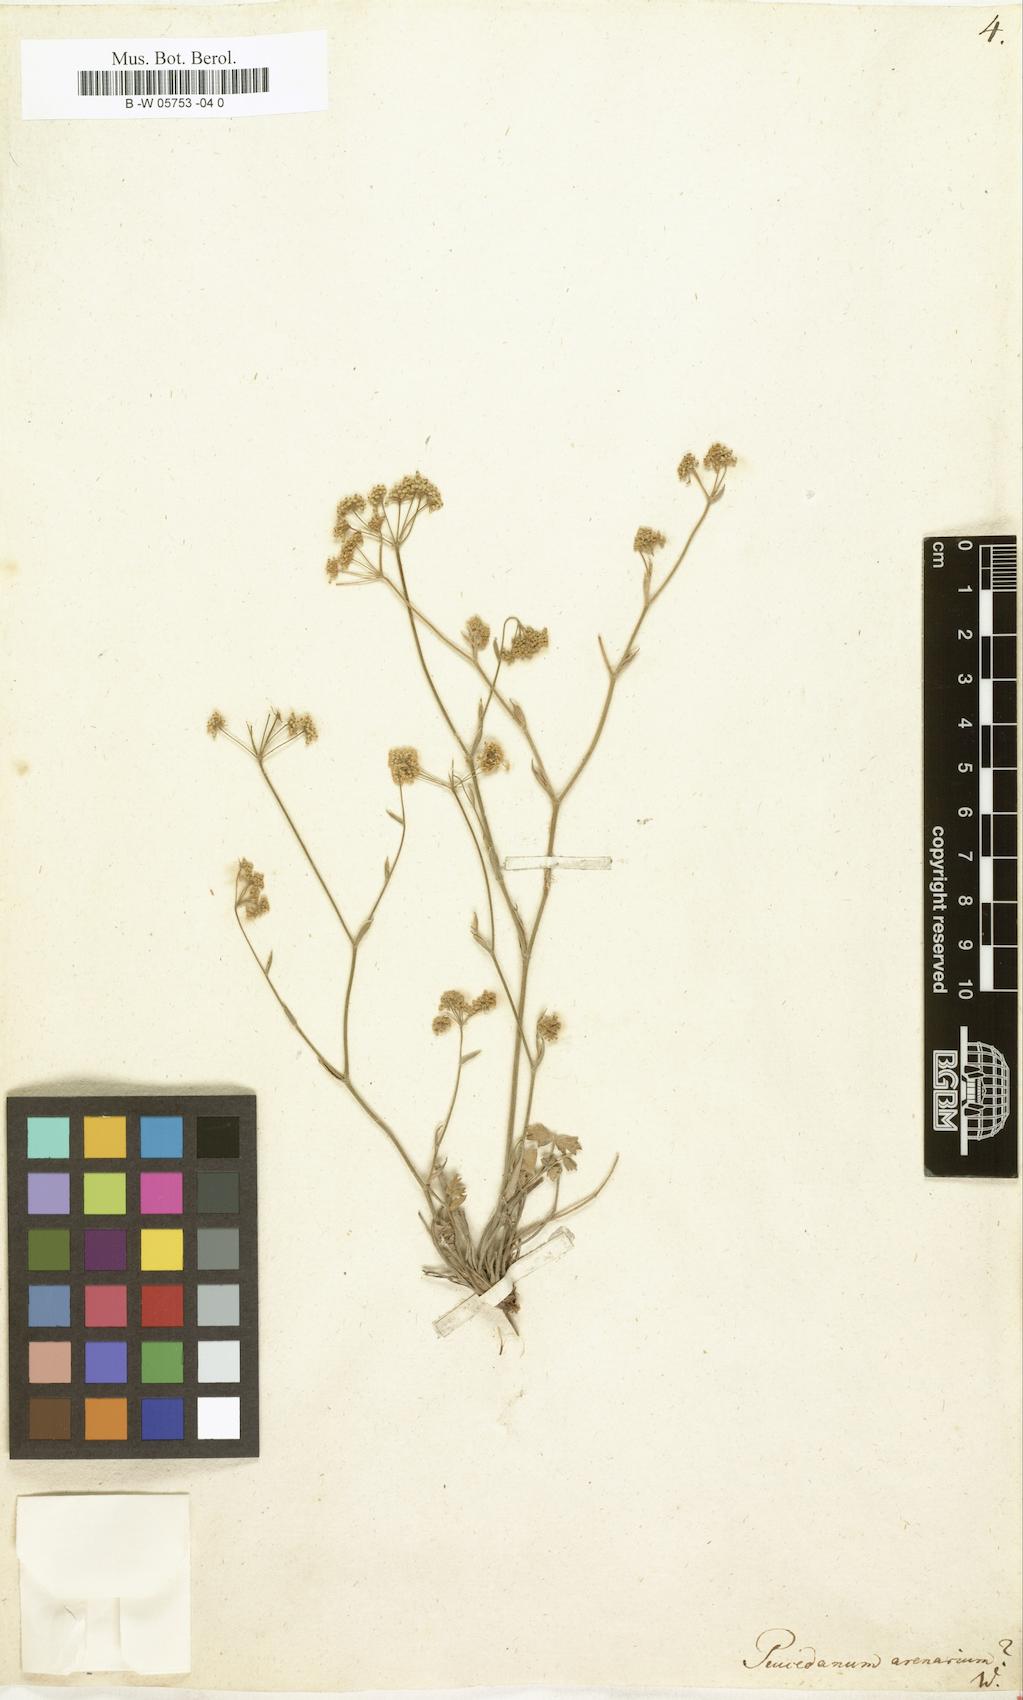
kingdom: Plantae
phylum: Tracheophyta
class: Magnoliopsida
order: Apiales
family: Apiaceae
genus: Taeniopetalum
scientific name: Taeniopetalum arenarium
